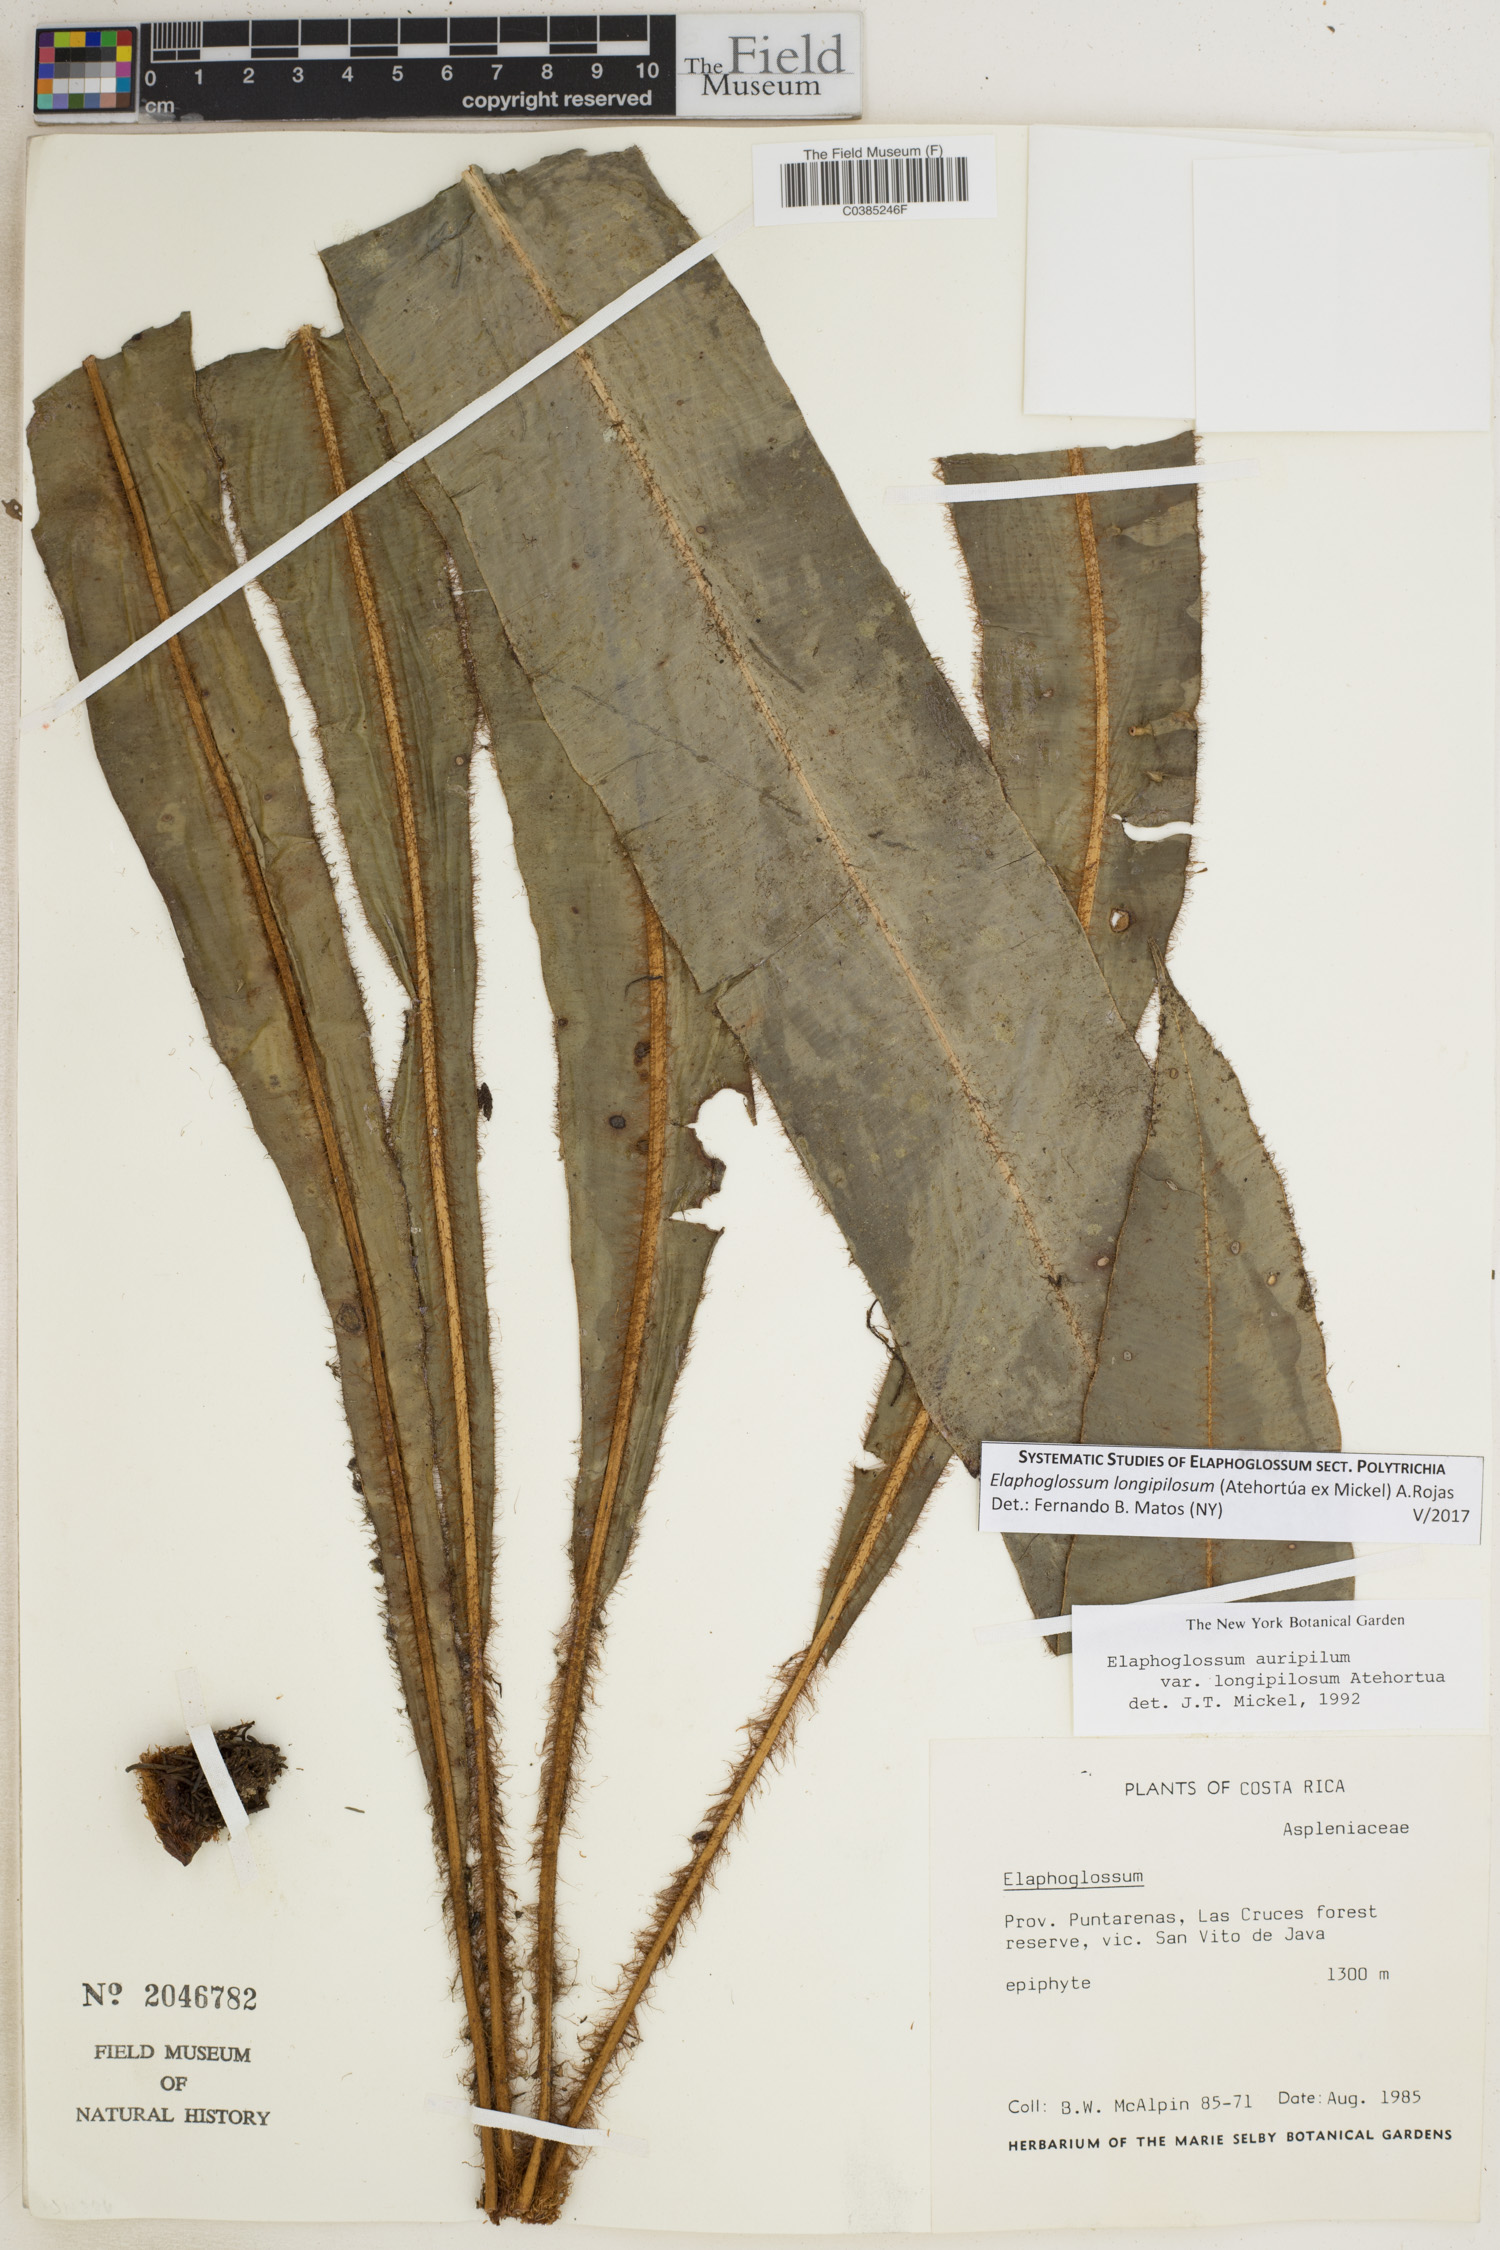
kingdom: Plantae
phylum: Tracheophyta
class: Polypodiopsida
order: Polypodiales
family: Dryopteridaceae
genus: Elaphoglossum
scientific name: Elaphoglossum longipilosum
